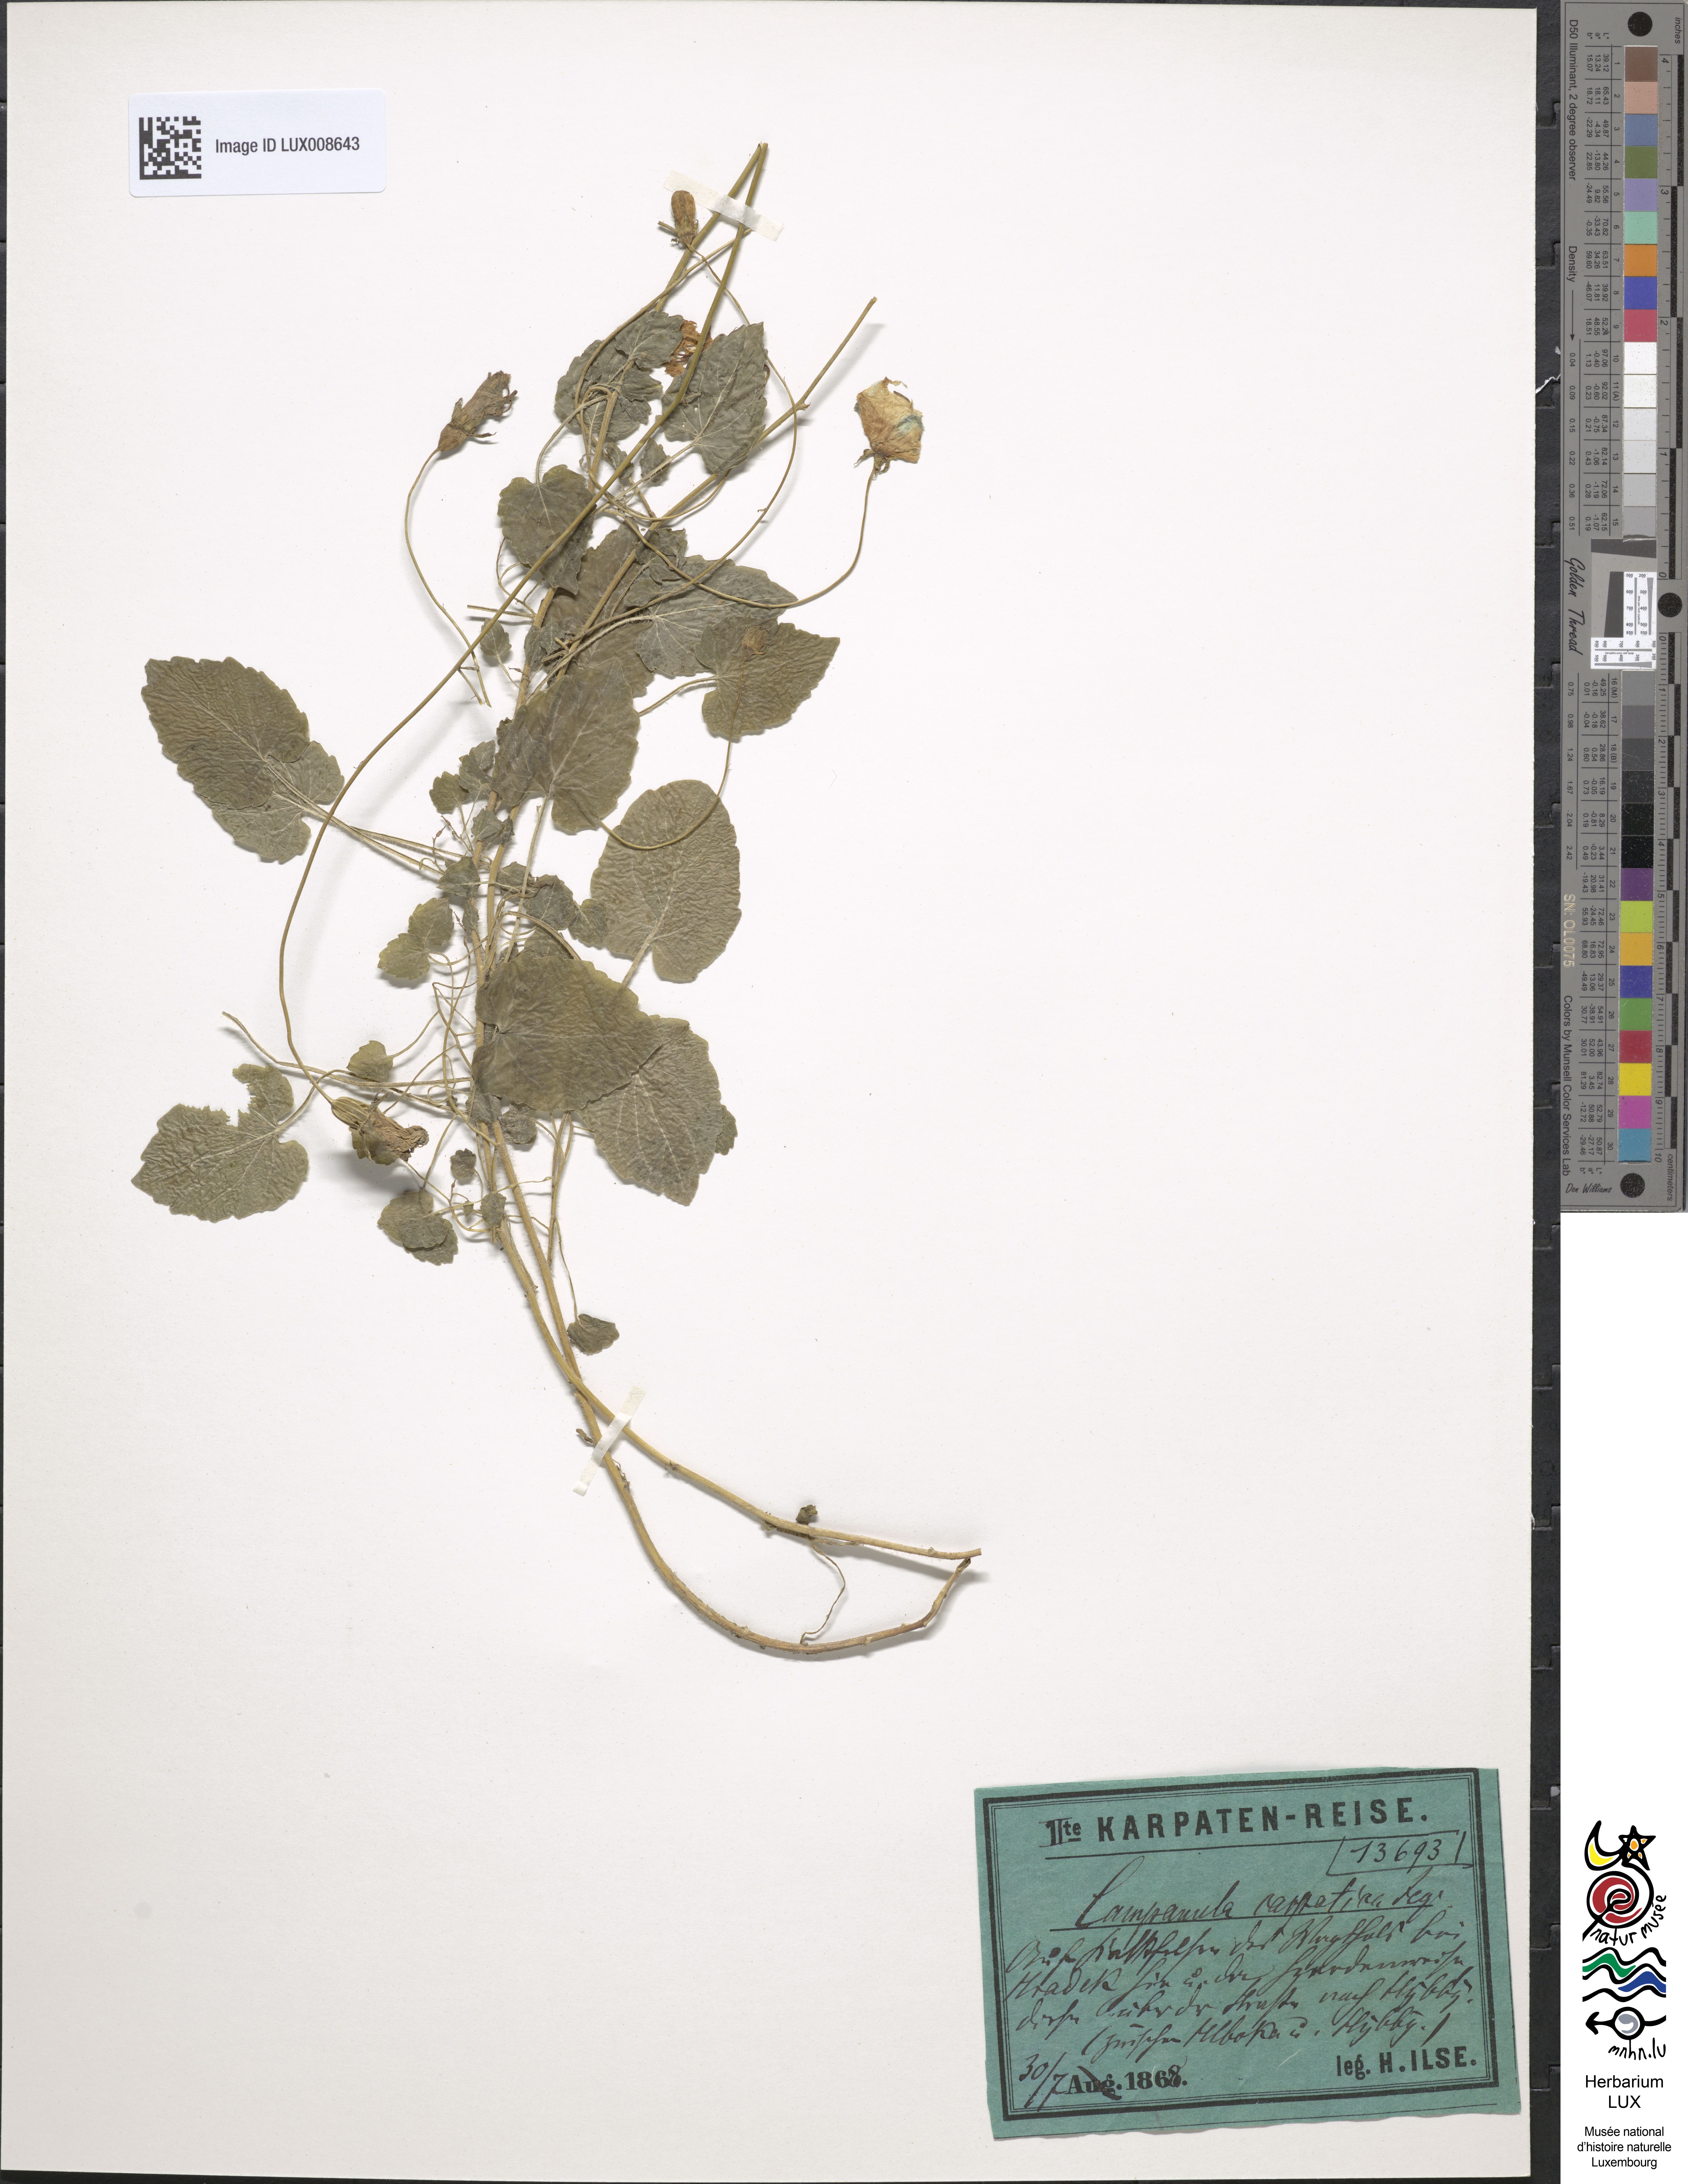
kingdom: Plantae
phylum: Tracheophyta
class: Magnoliopsida
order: Asterales
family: Campanulaceae
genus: Campanula
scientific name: Campanula carpatica
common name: Tussock bellflower
